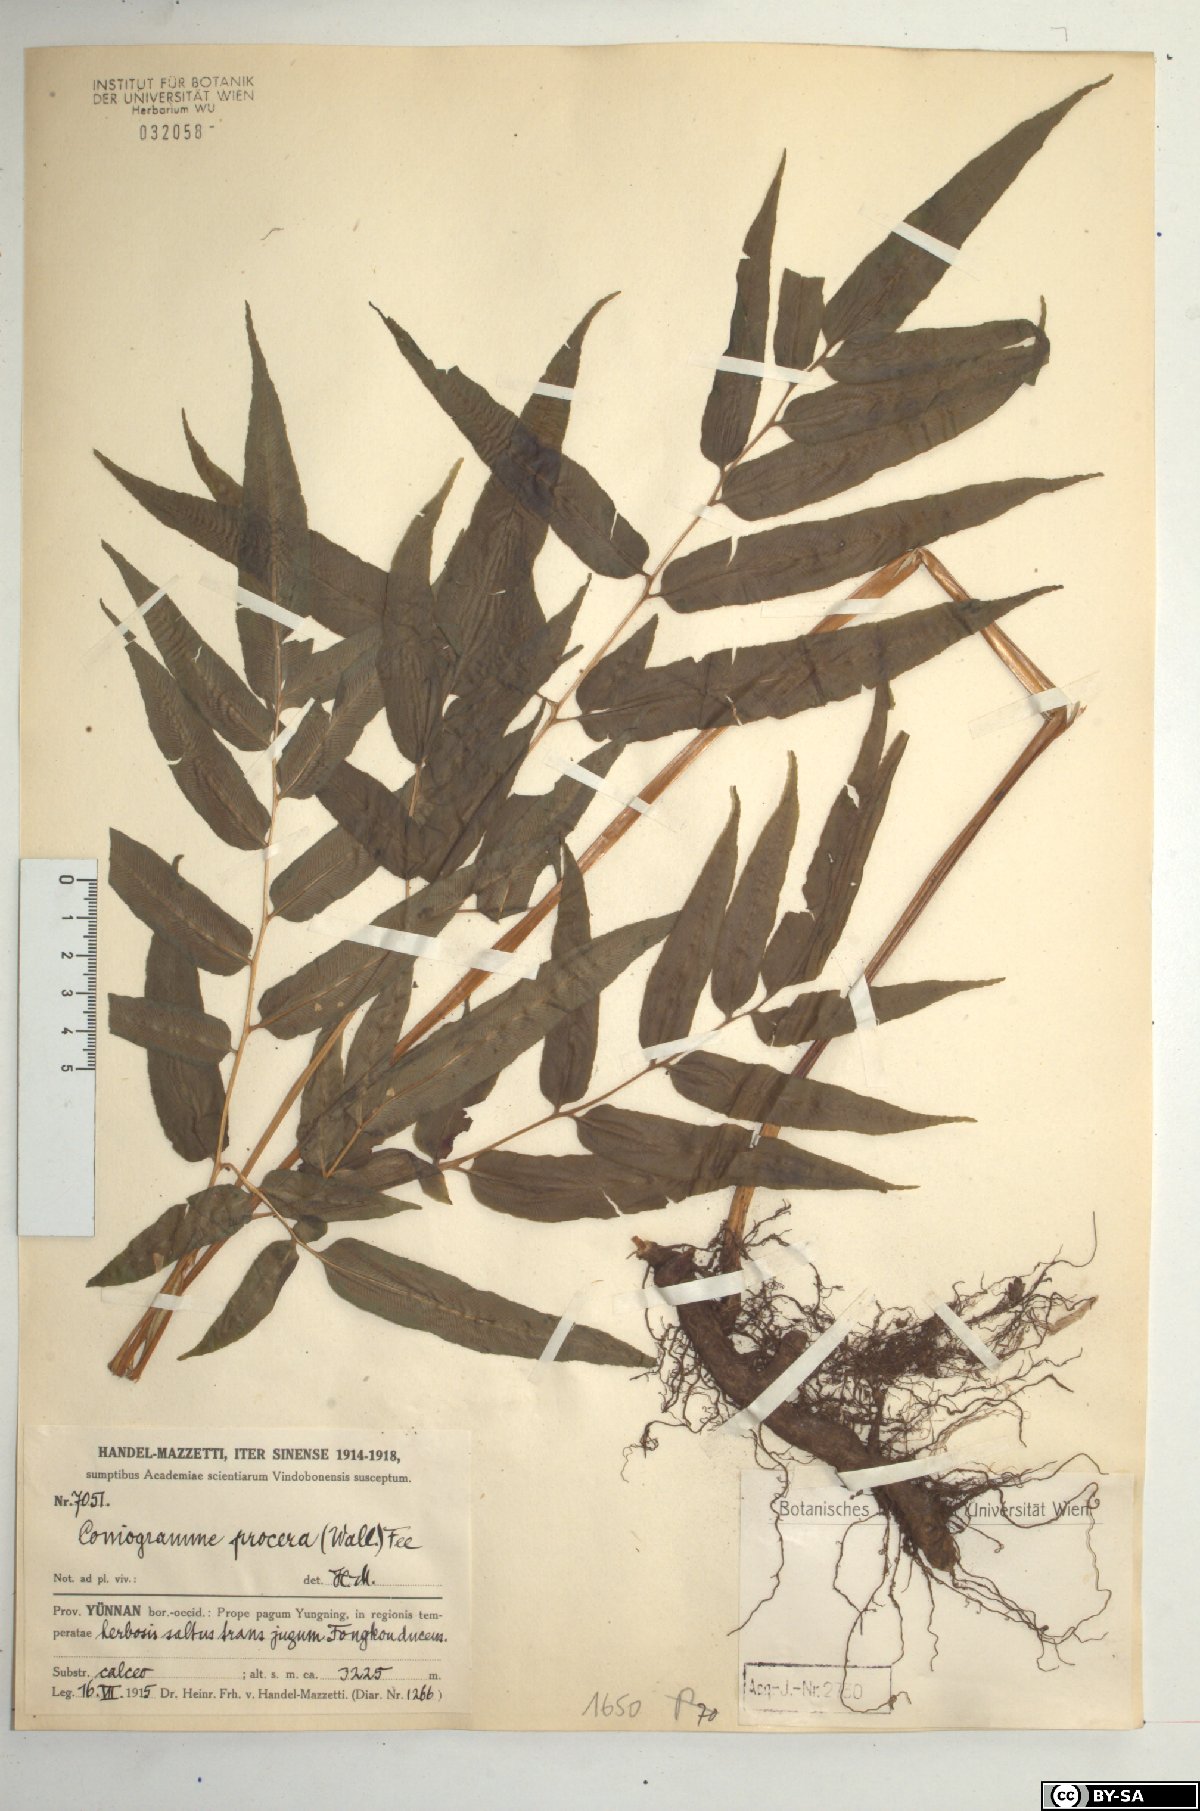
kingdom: Plantae
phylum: Tracheophyta
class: Polypodiopsida
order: Polypodiales
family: Pteridaceae
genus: Coniogramme
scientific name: Coniogramme procera
